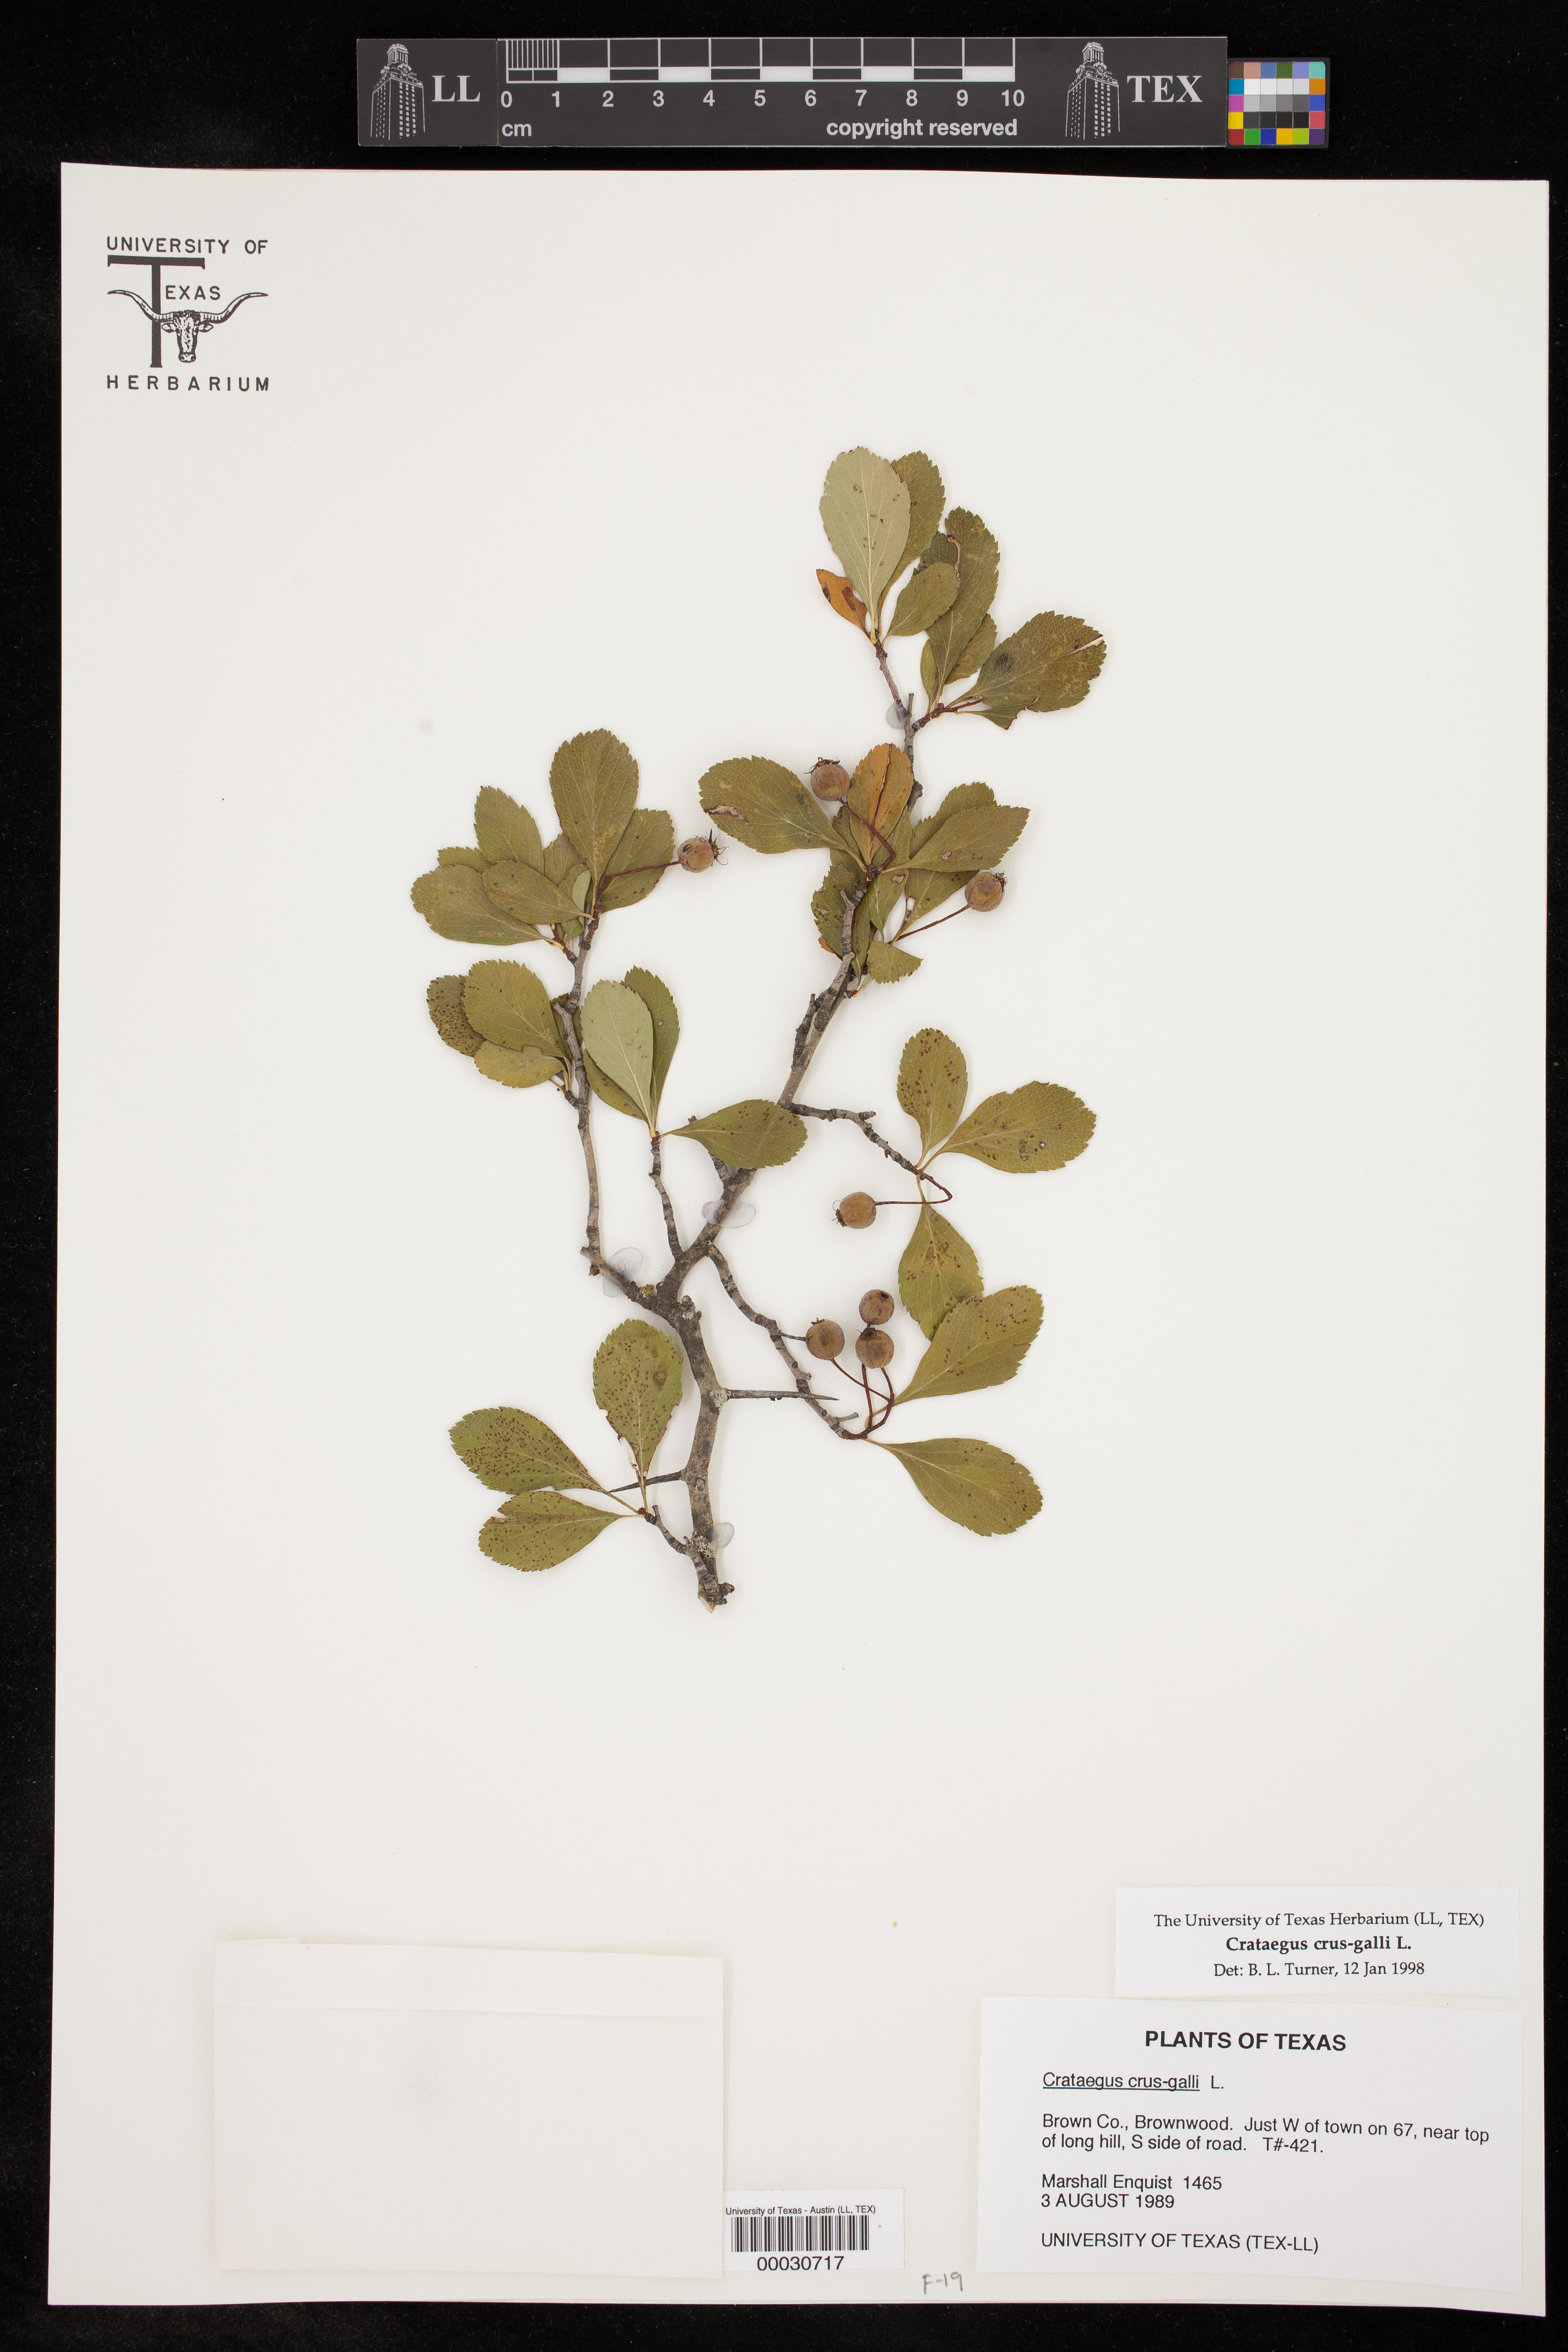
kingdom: Plantae
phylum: Tracheophyta
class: Magnoliopsida
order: Rosales
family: Rosaceae
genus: Crataegus
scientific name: Crataegus crus-galli
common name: Cockspurthorn
